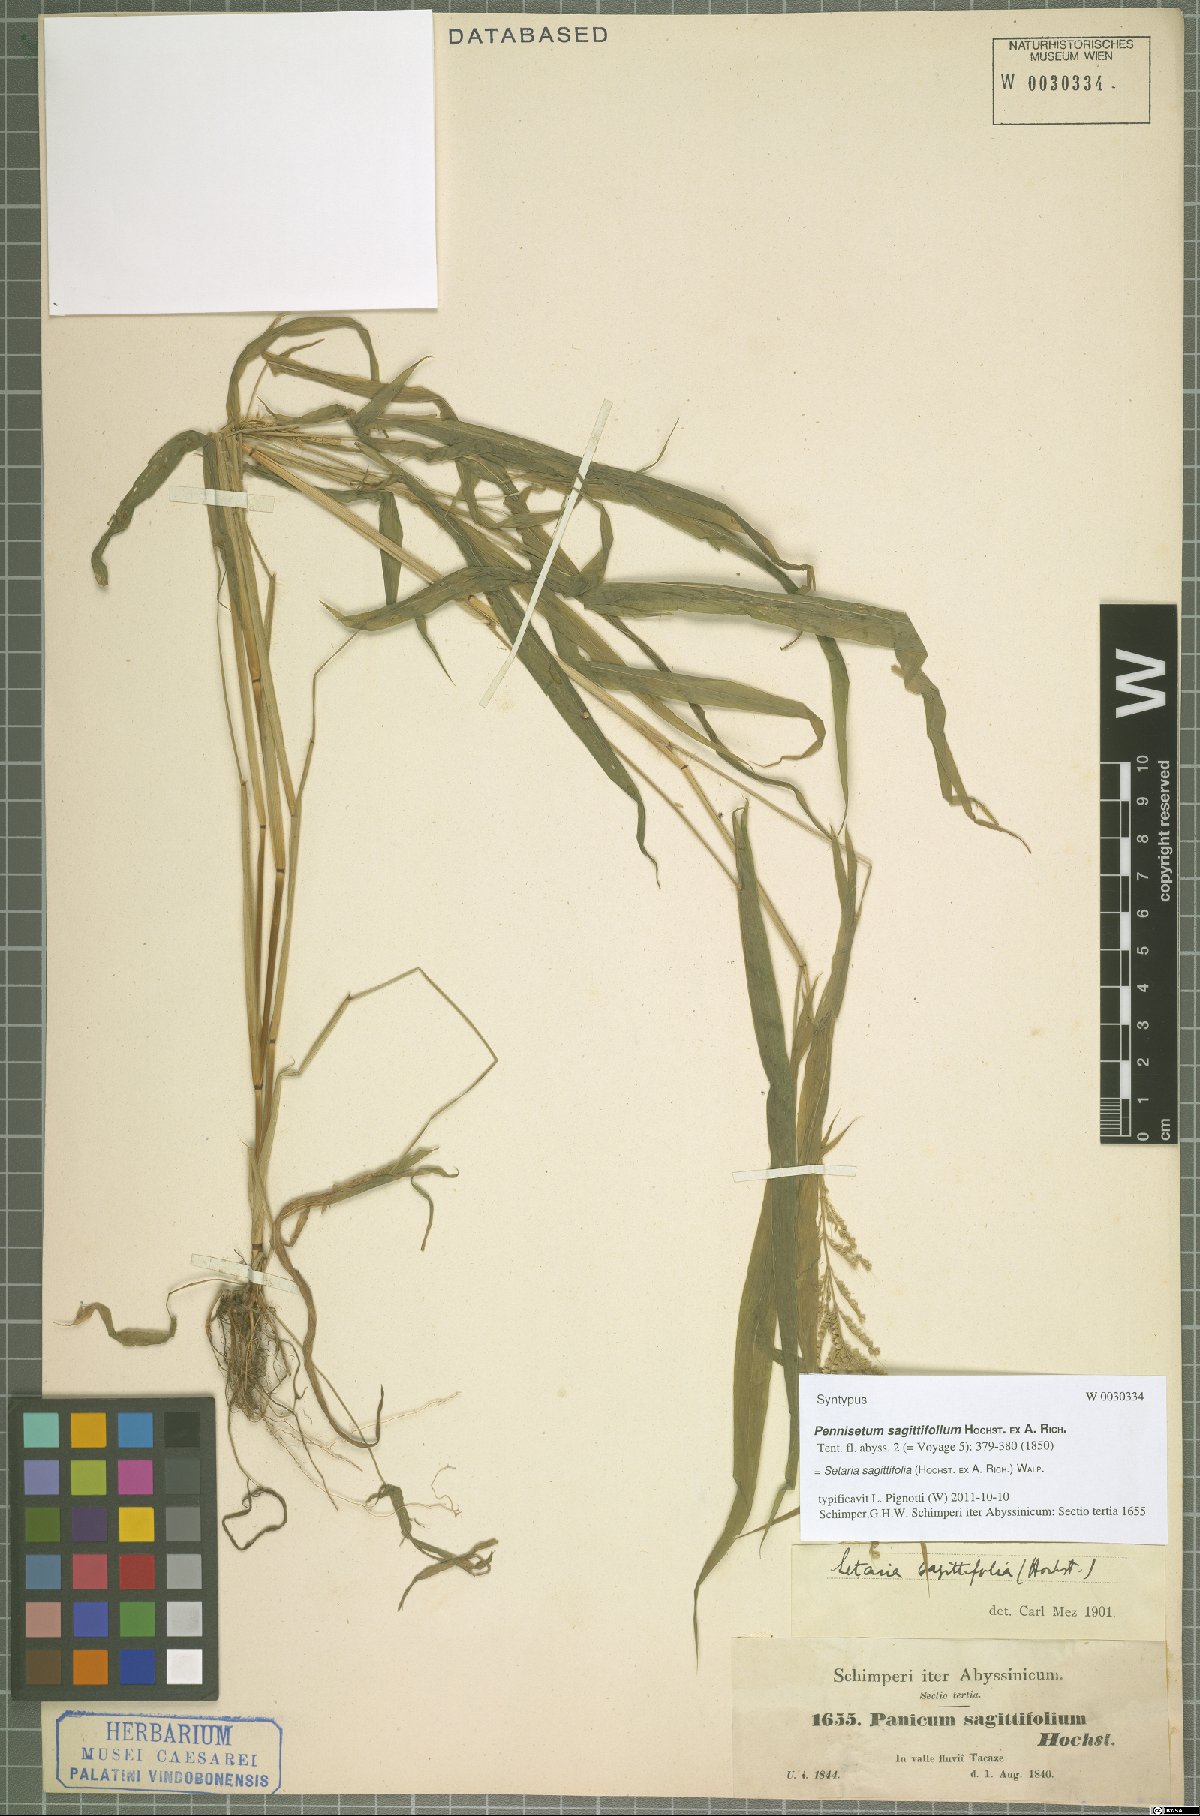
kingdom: Plantae
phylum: Tracheophyta
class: Liliopsida
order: Poales
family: Poaceae
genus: Setaria
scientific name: Setaria sagittifolia
